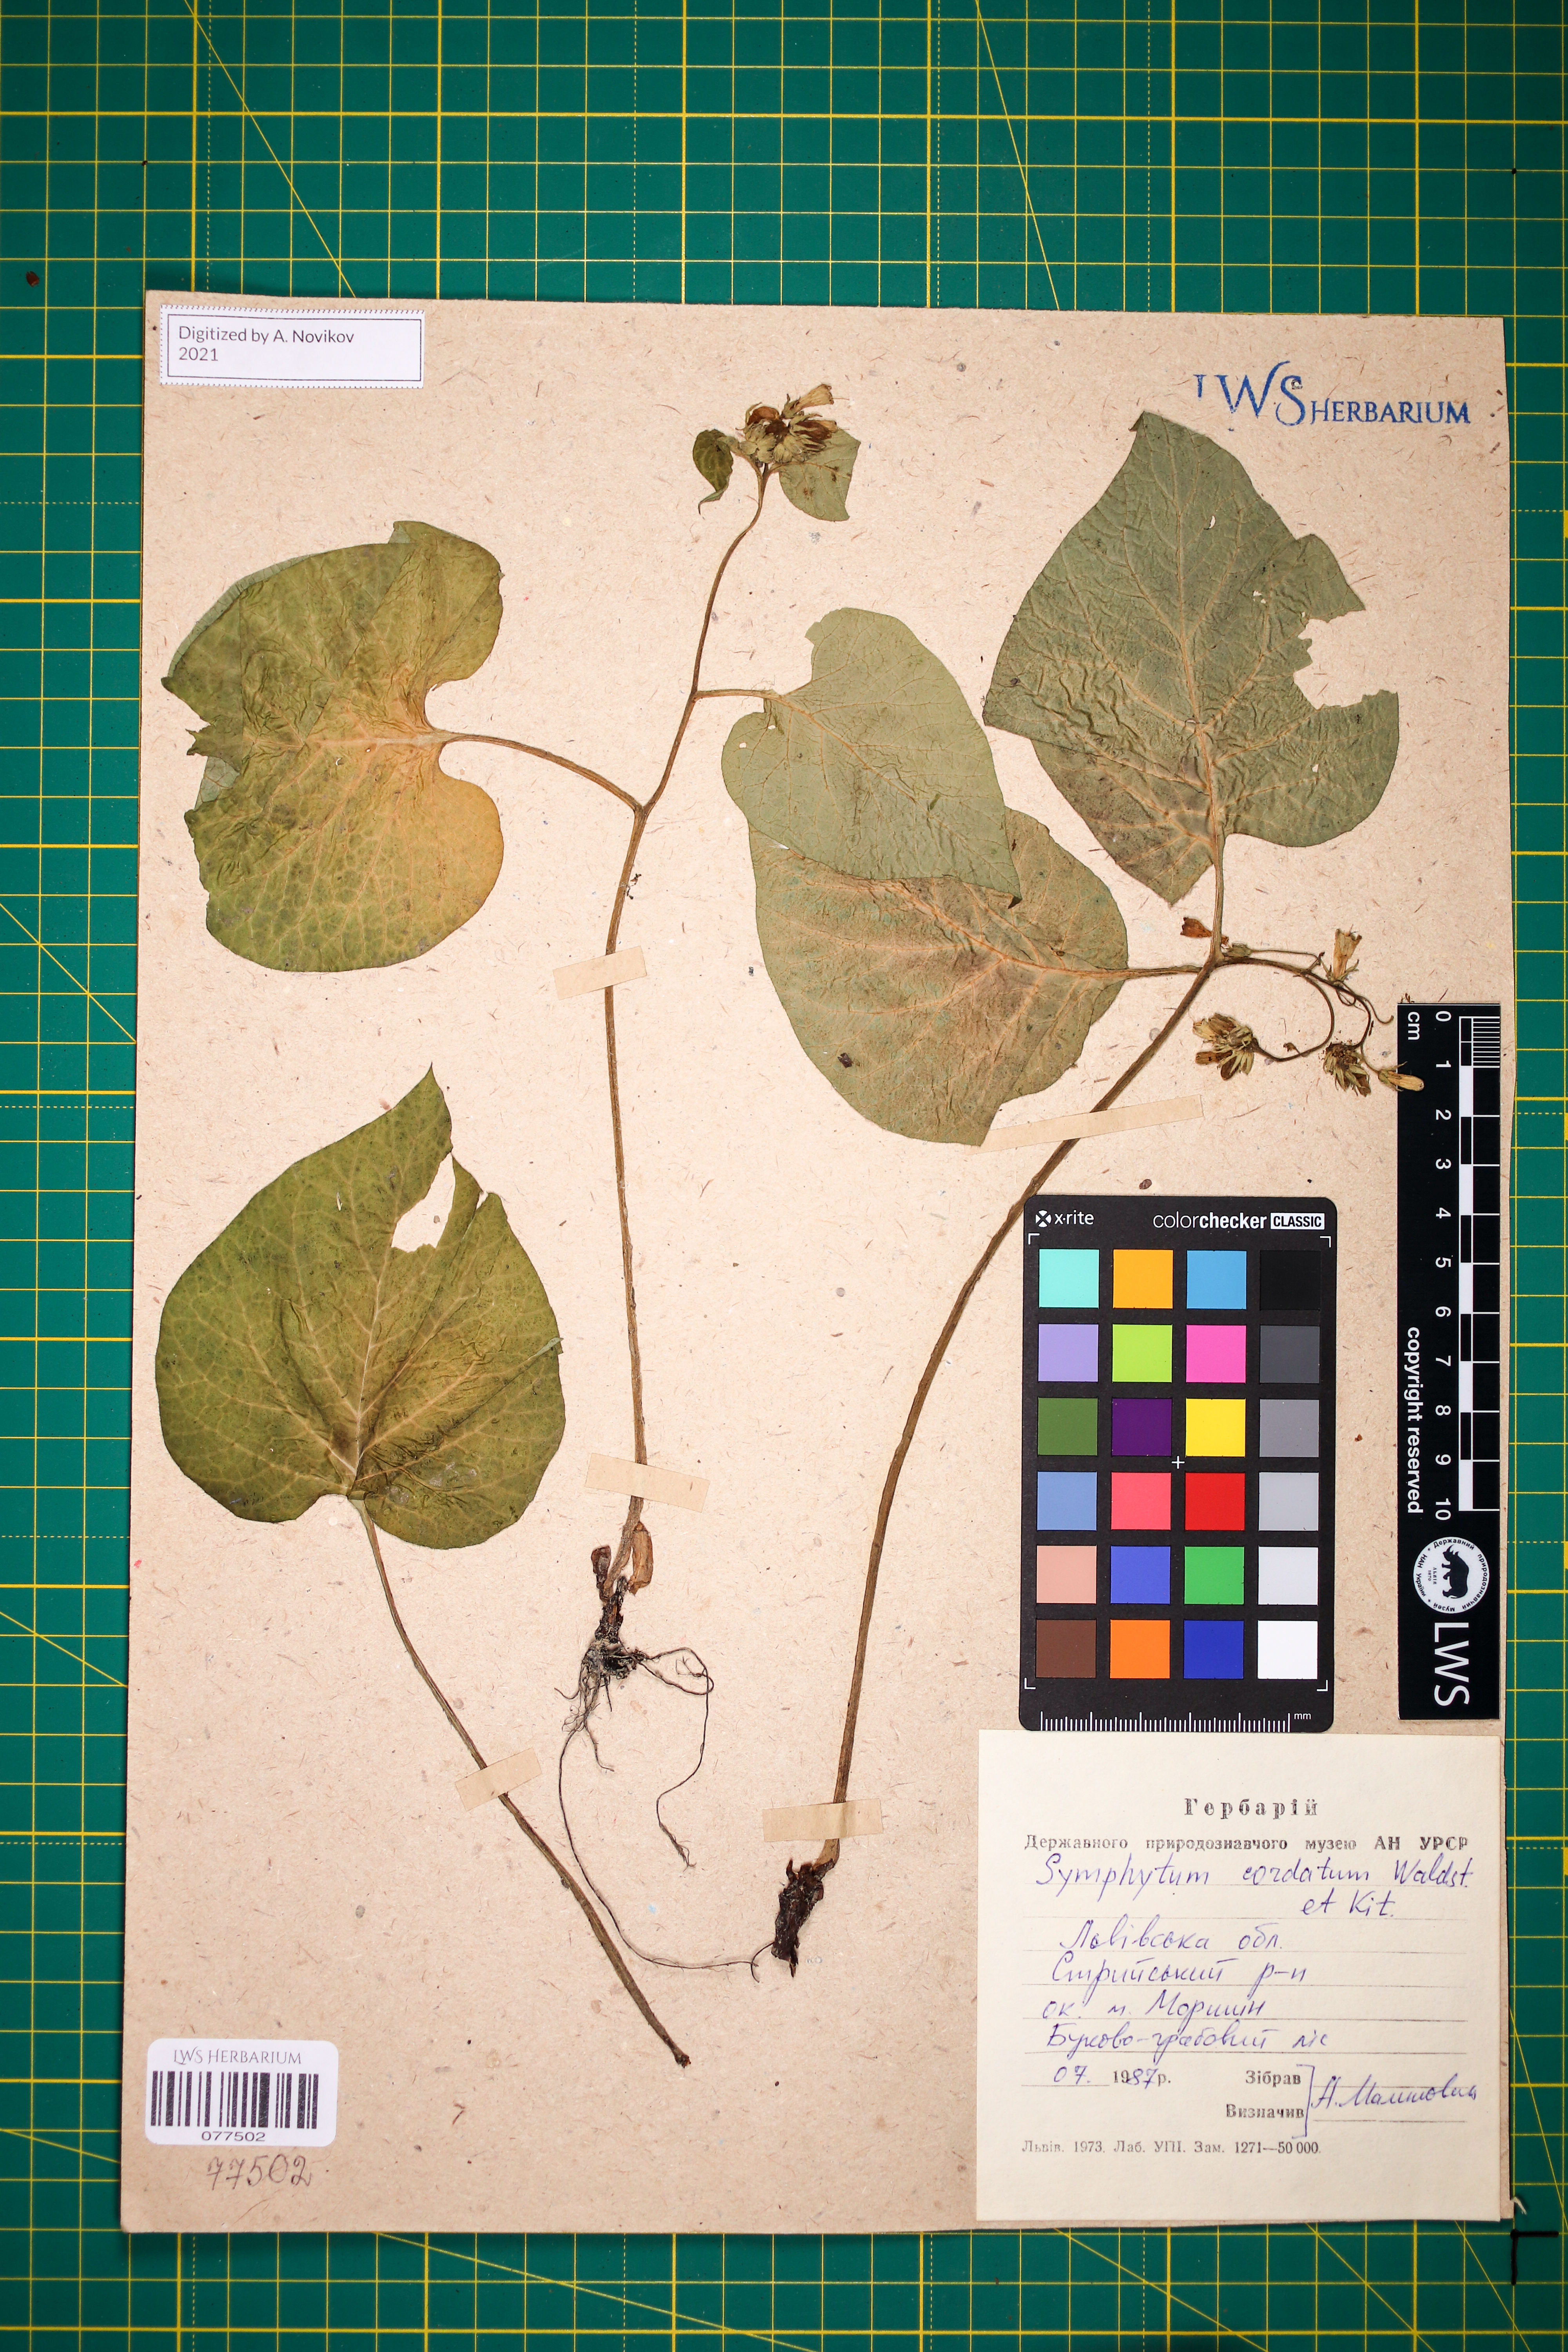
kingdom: Plantae
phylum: Tracheophyta
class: Magnoliopsida
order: Boraginales
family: Boraginaceae
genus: Symphytum
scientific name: Symphytum cordatum
